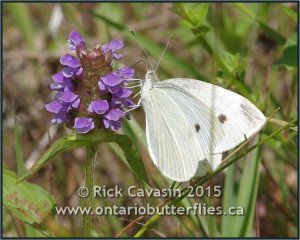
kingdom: Animalia
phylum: Arthropoda
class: Insecta
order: Lepidoptera
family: Pieridae
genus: Pieris
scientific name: Pieris rapae
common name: Cabbage White
